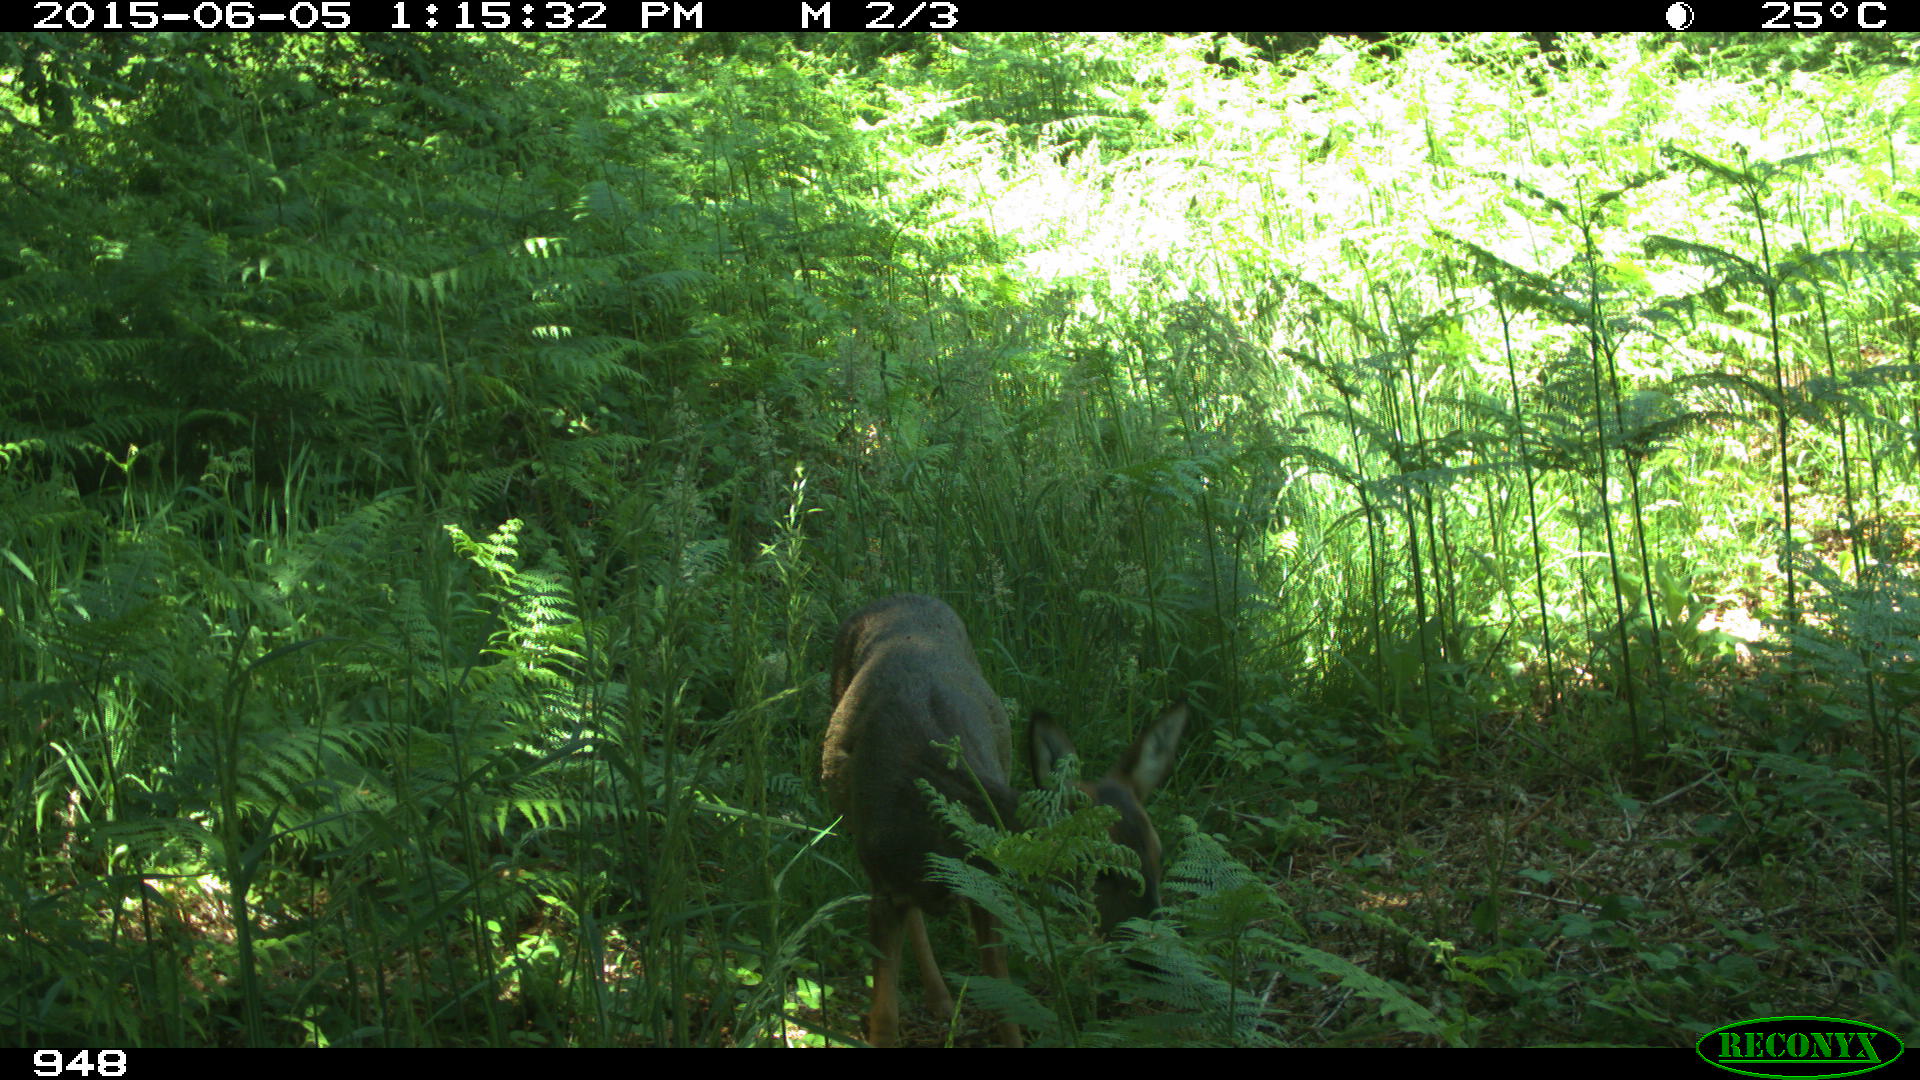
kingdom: Animalia
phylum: Chordata
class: Mammalia
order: Artiodactyla
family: Cervidae
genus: Capreolus
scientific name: Capreolus capreolus
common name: Western roe deer
